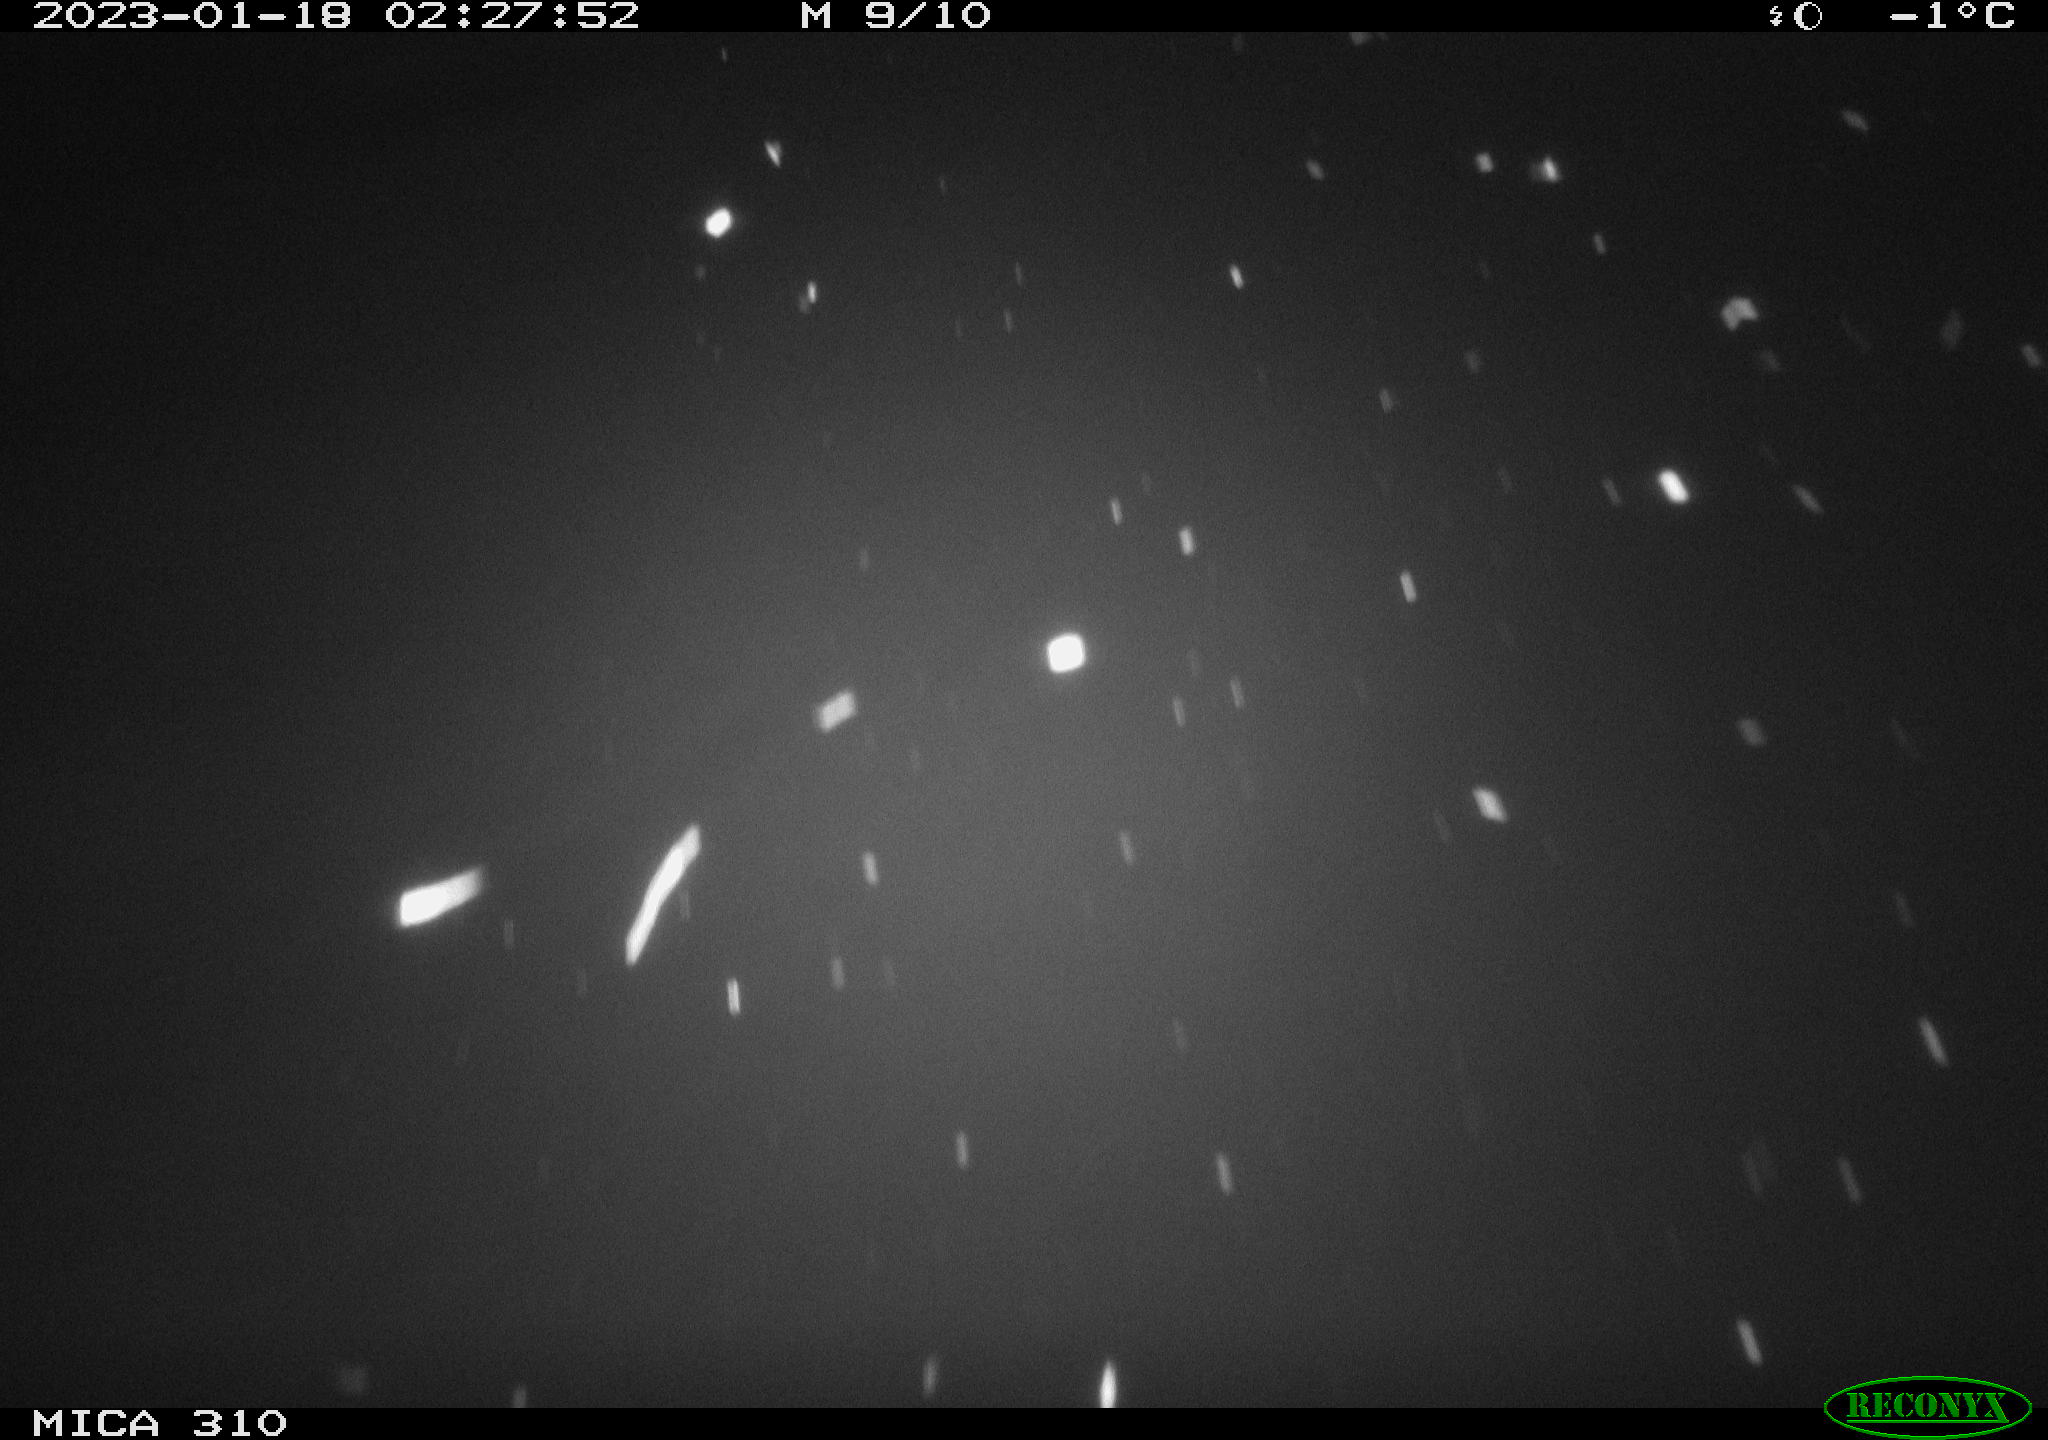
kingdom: Animalia
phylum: Chordata
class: Aves
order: Anseriformes
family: Anatidae
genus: Anas
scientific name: Anas
